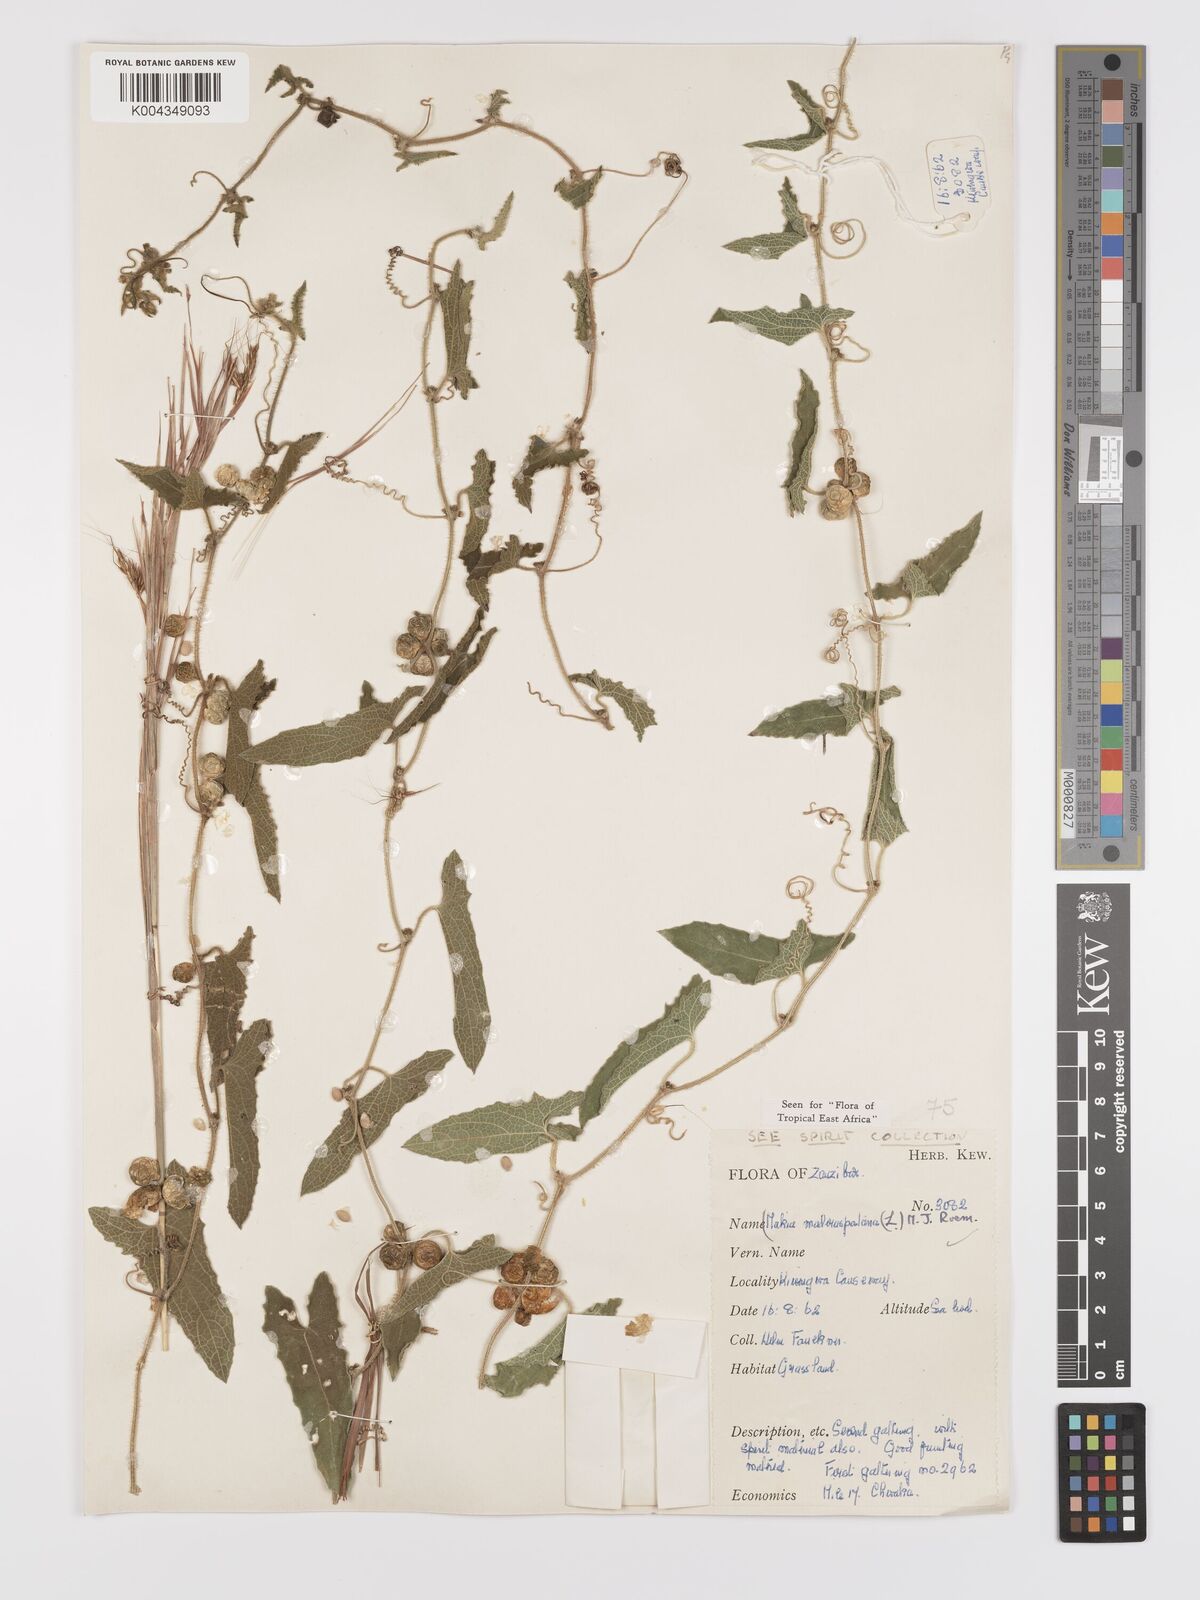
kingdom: Plantae
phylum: Tracheophyta
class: Magnoliopsida
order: Cucurbitales
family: Cucurbitaceae
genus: Cucumis
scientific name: Cucumis maderaspatanus
